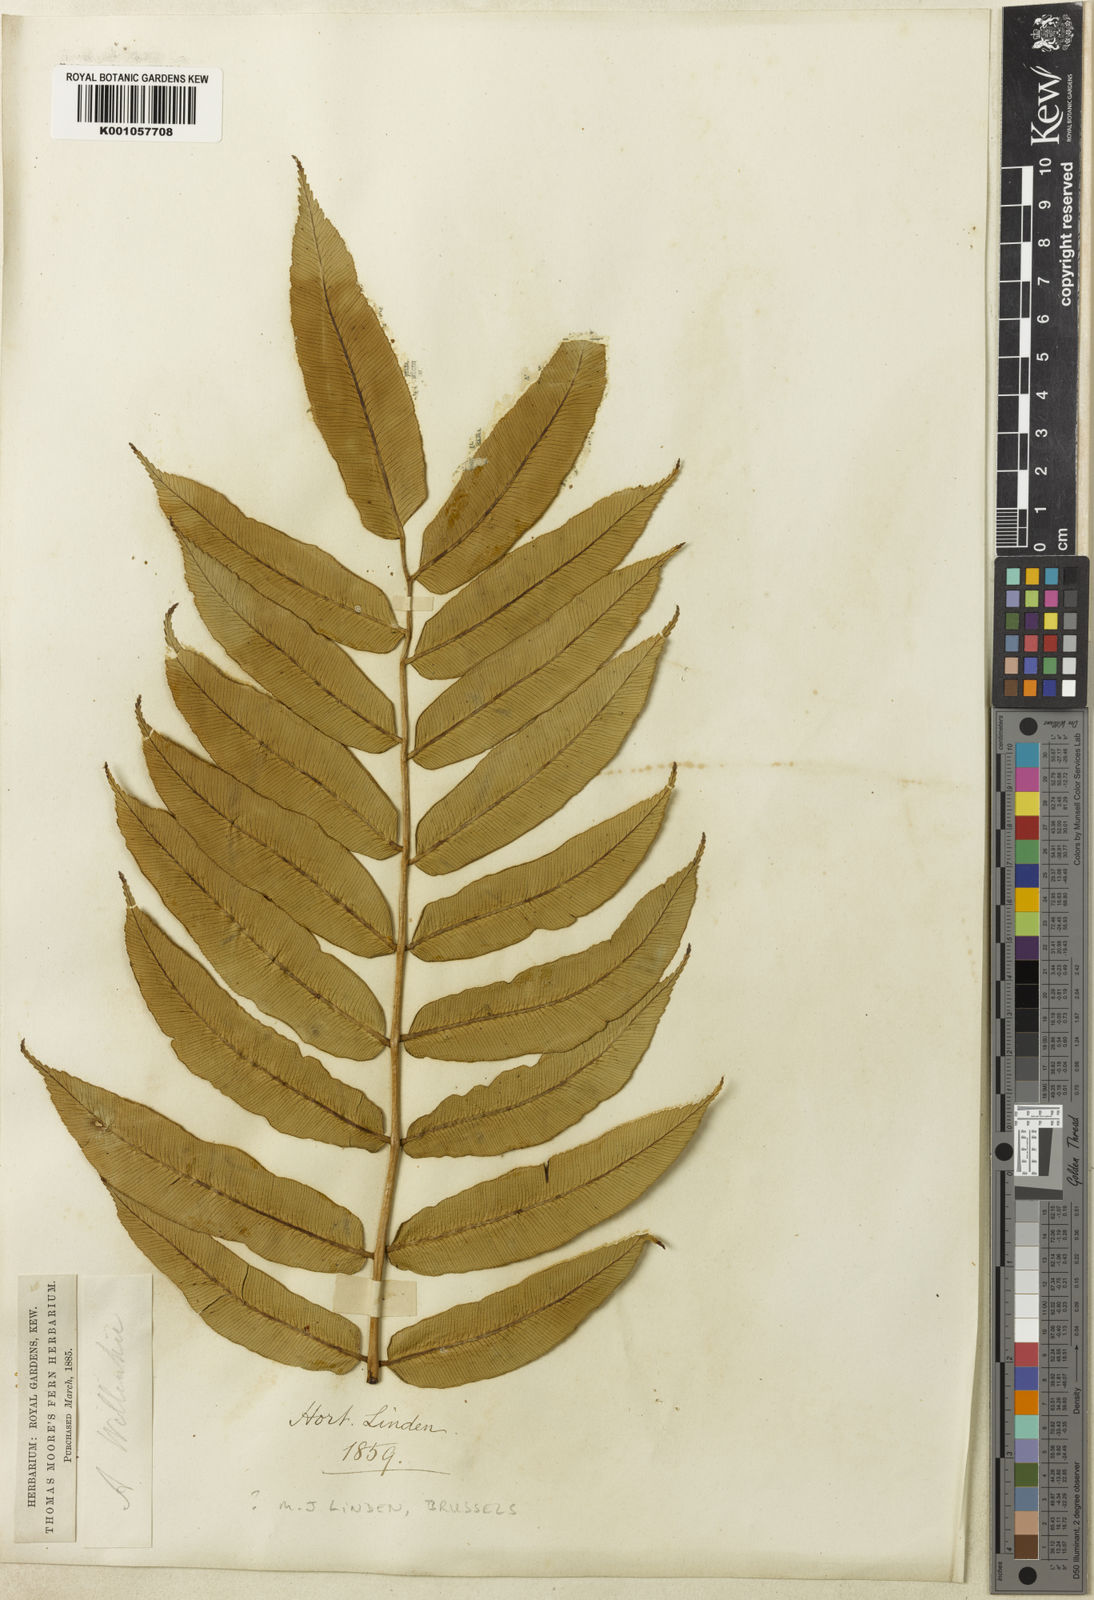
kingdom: Plantae
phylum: Tracheophyta
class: Polypodiopsida
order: Marattiales
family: Marattiaceae
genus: Angiopteris
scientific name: Angiopteris pruinosa
